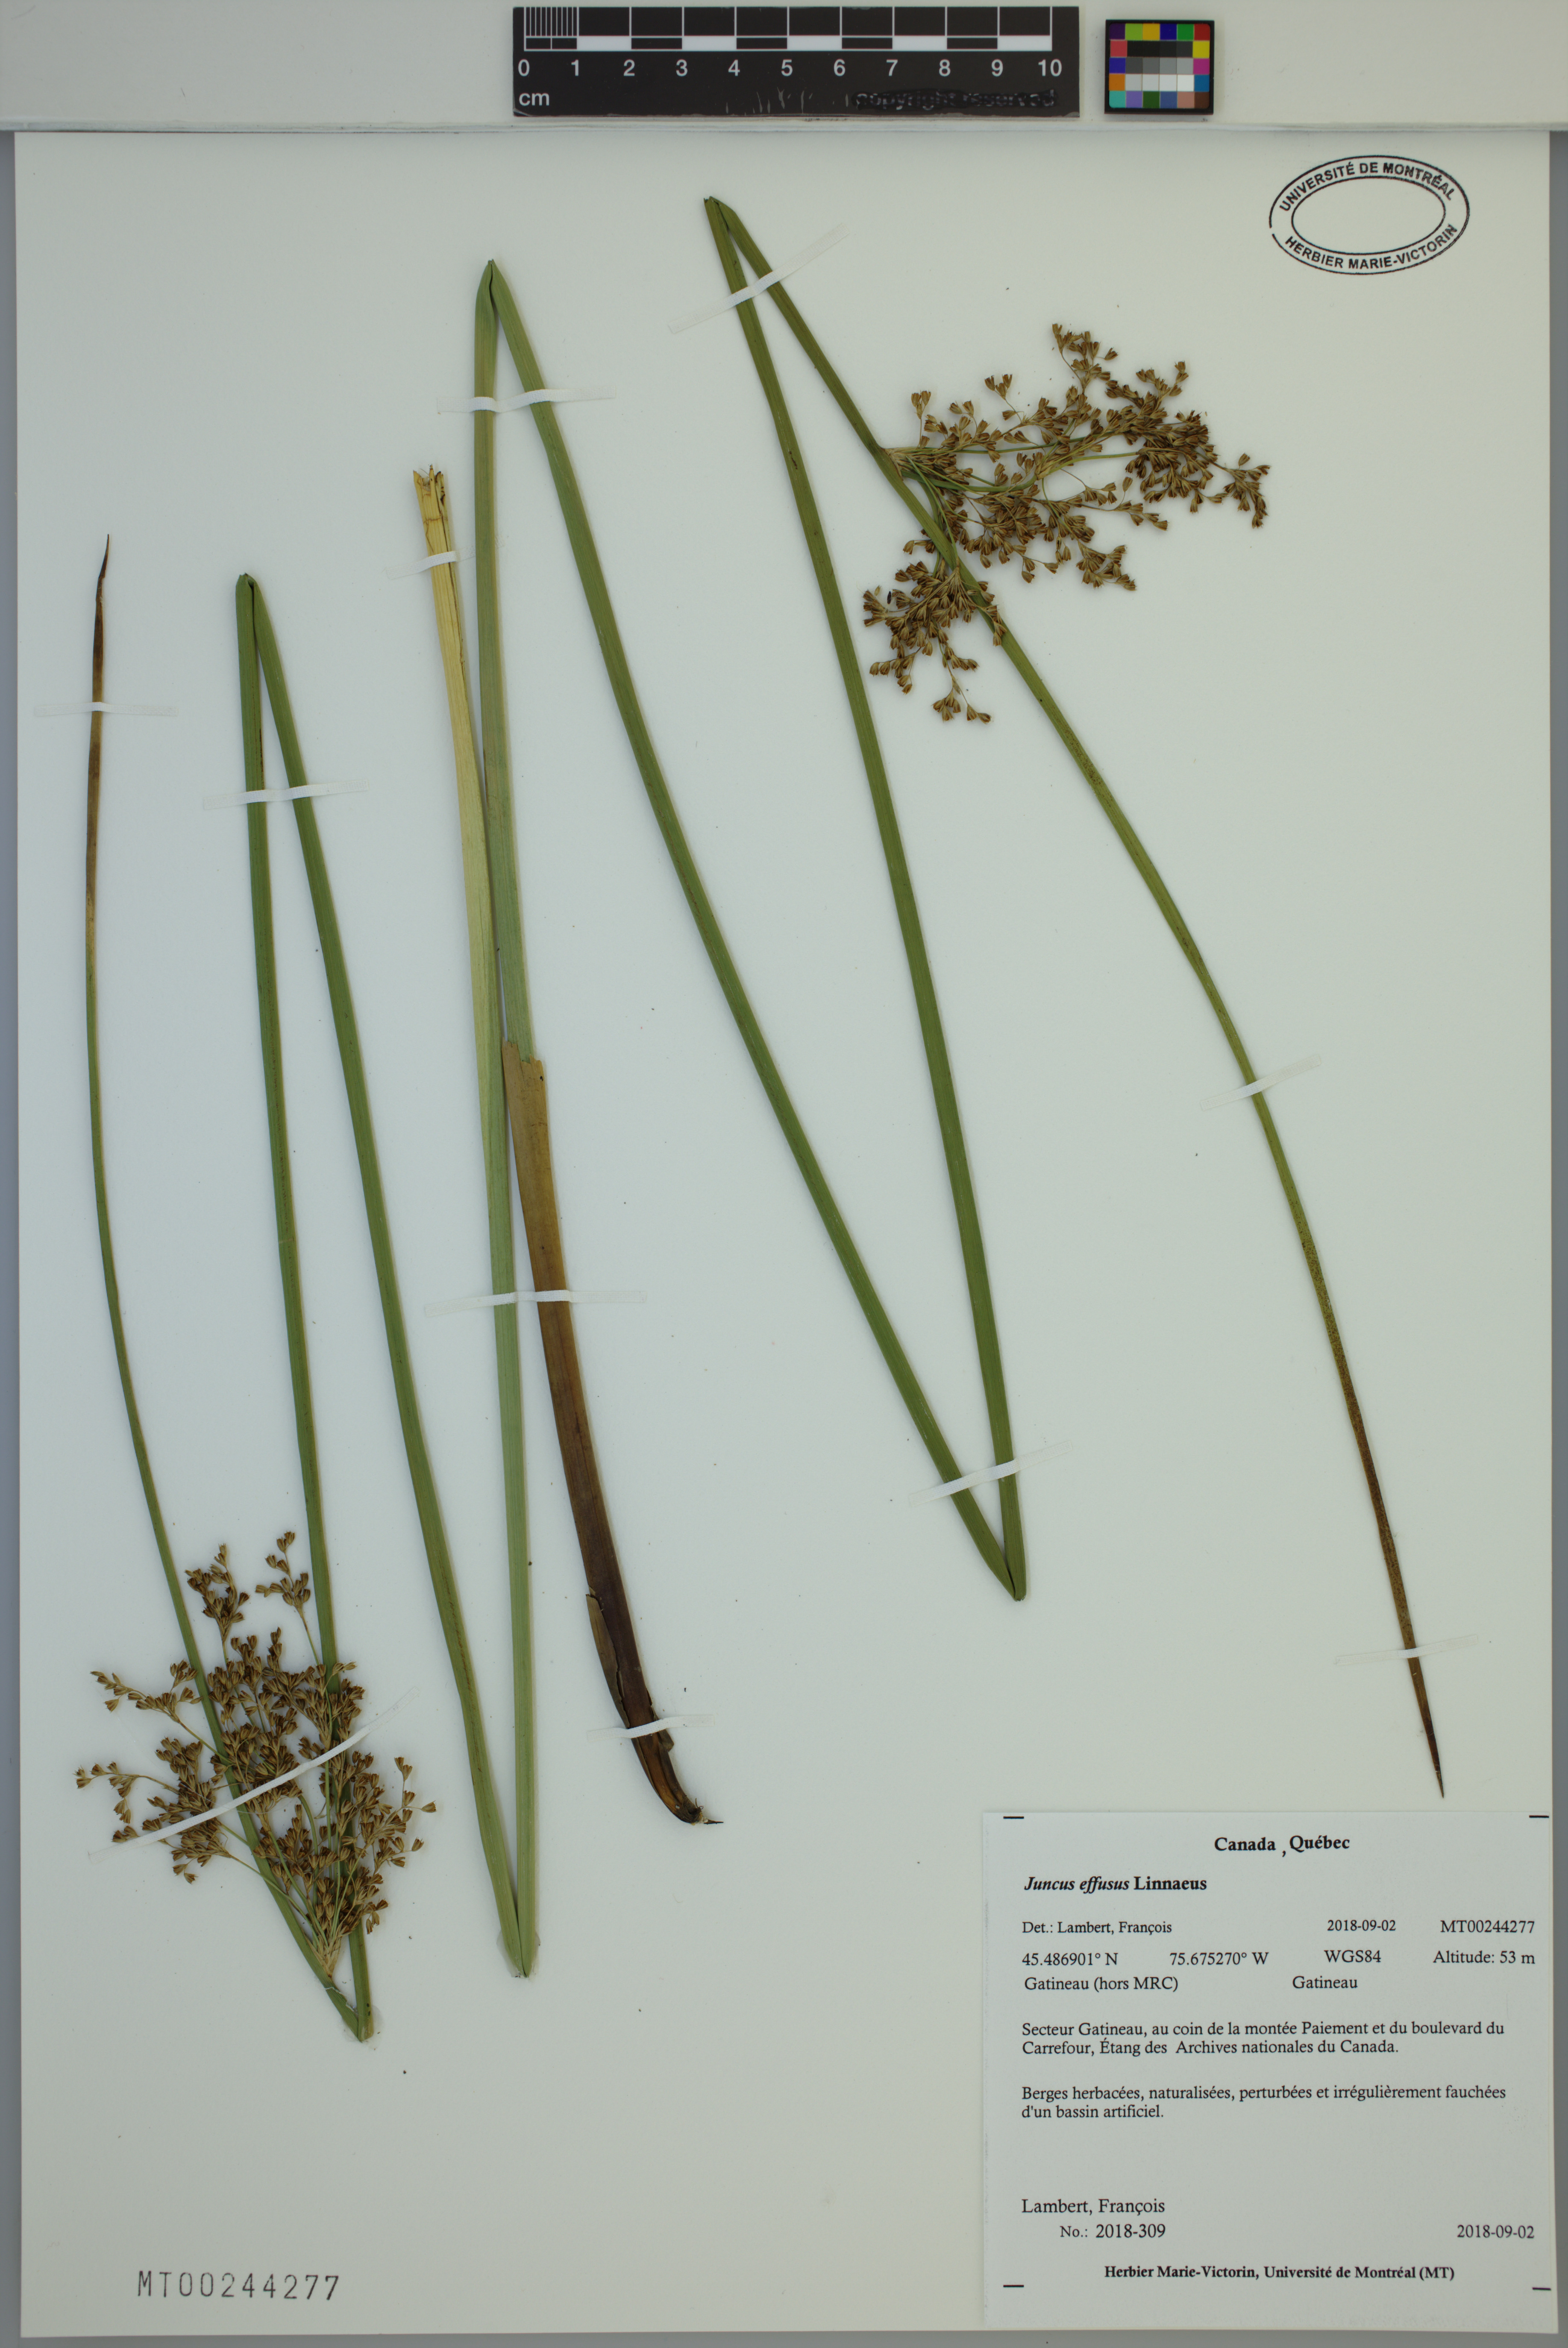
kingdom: Plantae
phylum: Tracheophyta
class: Liliopsida
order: Poales
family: Juncaceae
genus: Juncus
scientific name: Juncus effusus
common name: Soft rush
